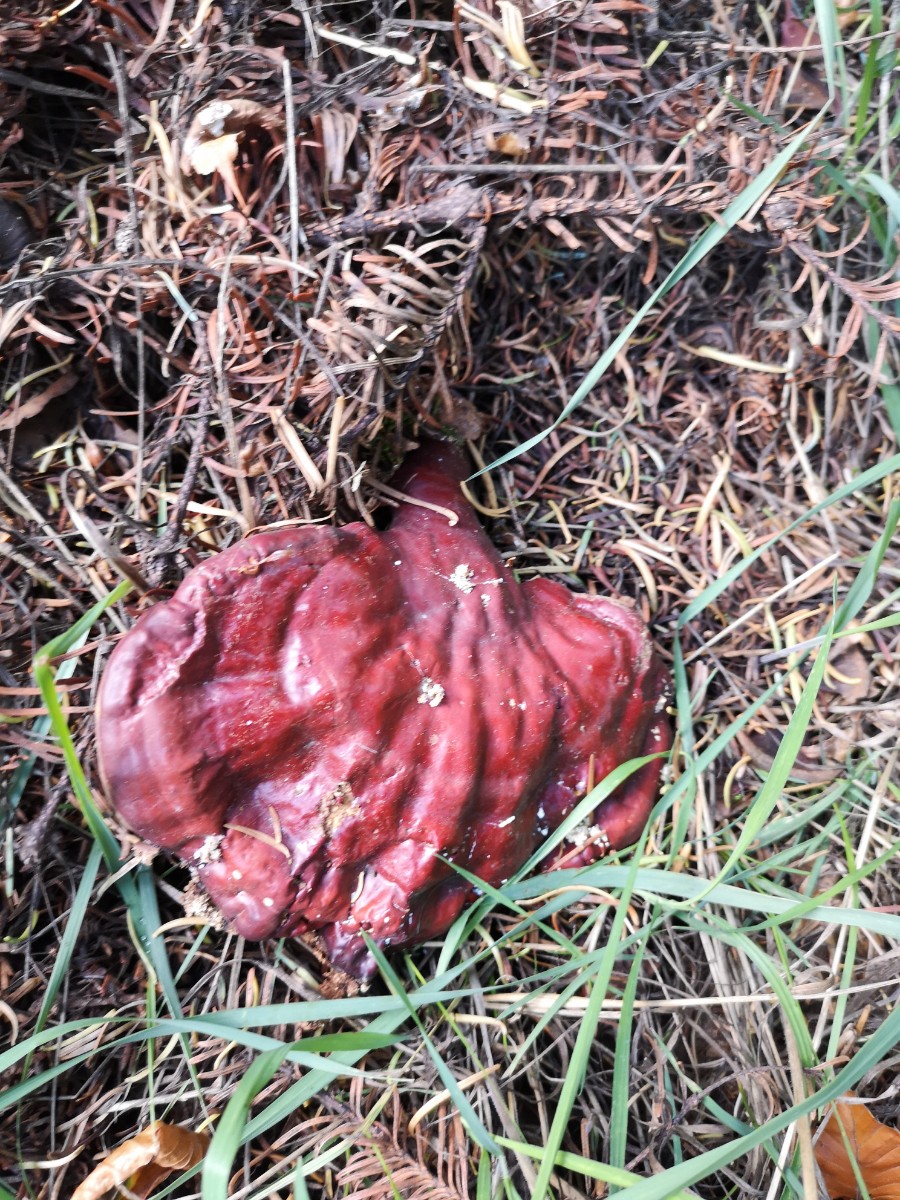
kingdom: Fungi
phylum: Basidiomycota
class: Agaricomycetes
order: Polyporales
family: Polyporaceae
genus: Ganoderma
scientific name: Ganoderma lucidum
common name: skinnende lakporesvamp
